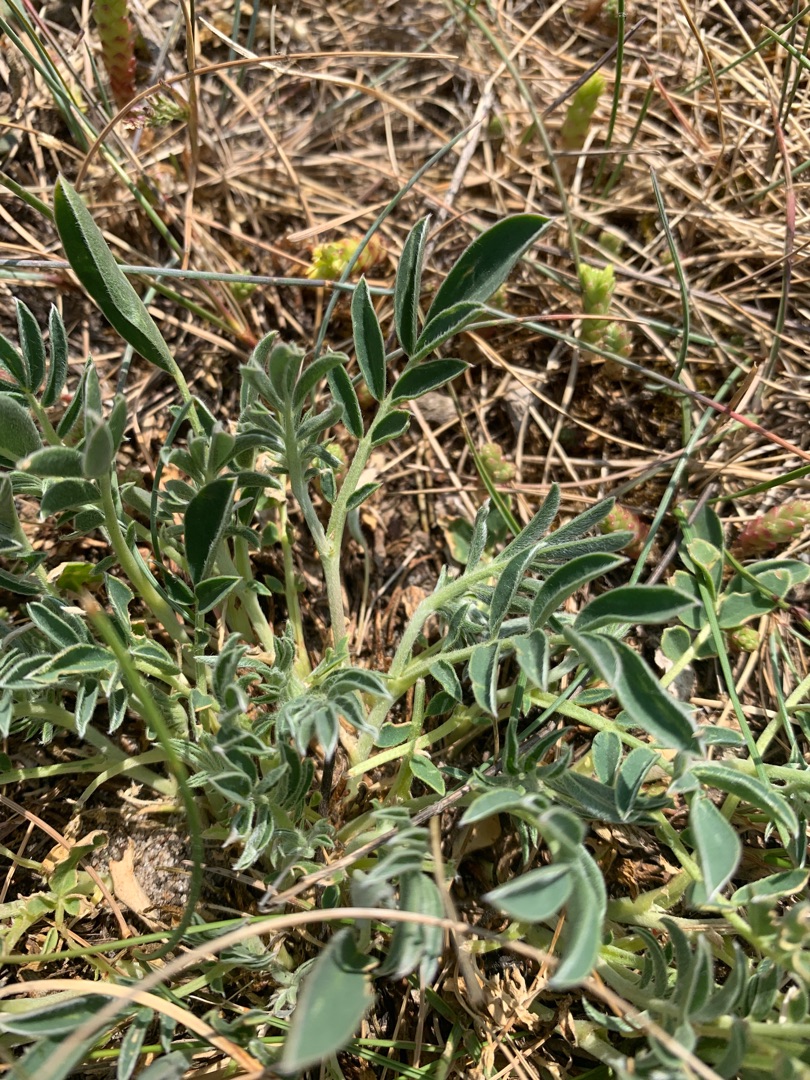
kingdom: Plantae
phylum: Tracheophyta
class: Magnoliopsida
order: Fabales
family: Fabaceae
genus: Anthyllis
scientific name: Anthyllis vulneraria
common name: Rundbælg
